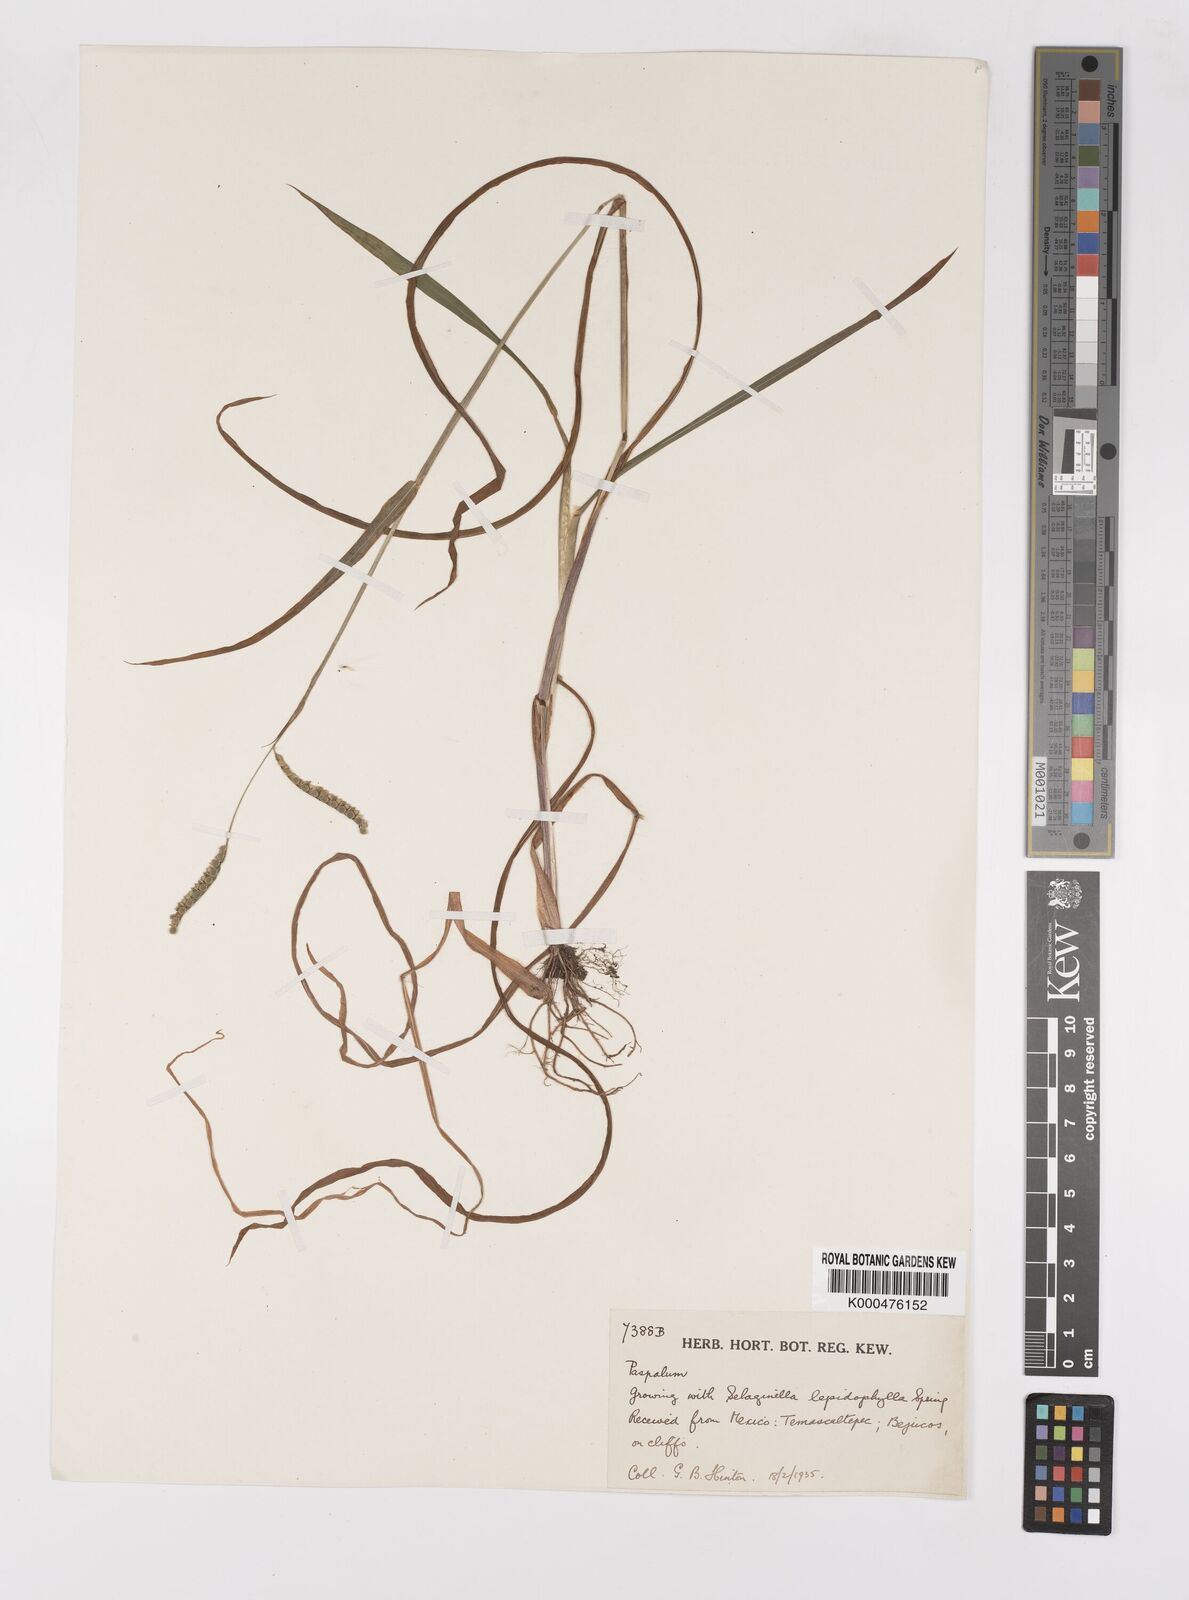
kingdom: Plantae
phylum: Tracheophyta
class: Liliopsida
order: Poales
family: Poaceae
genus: Paspalum
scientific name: Paspalum
